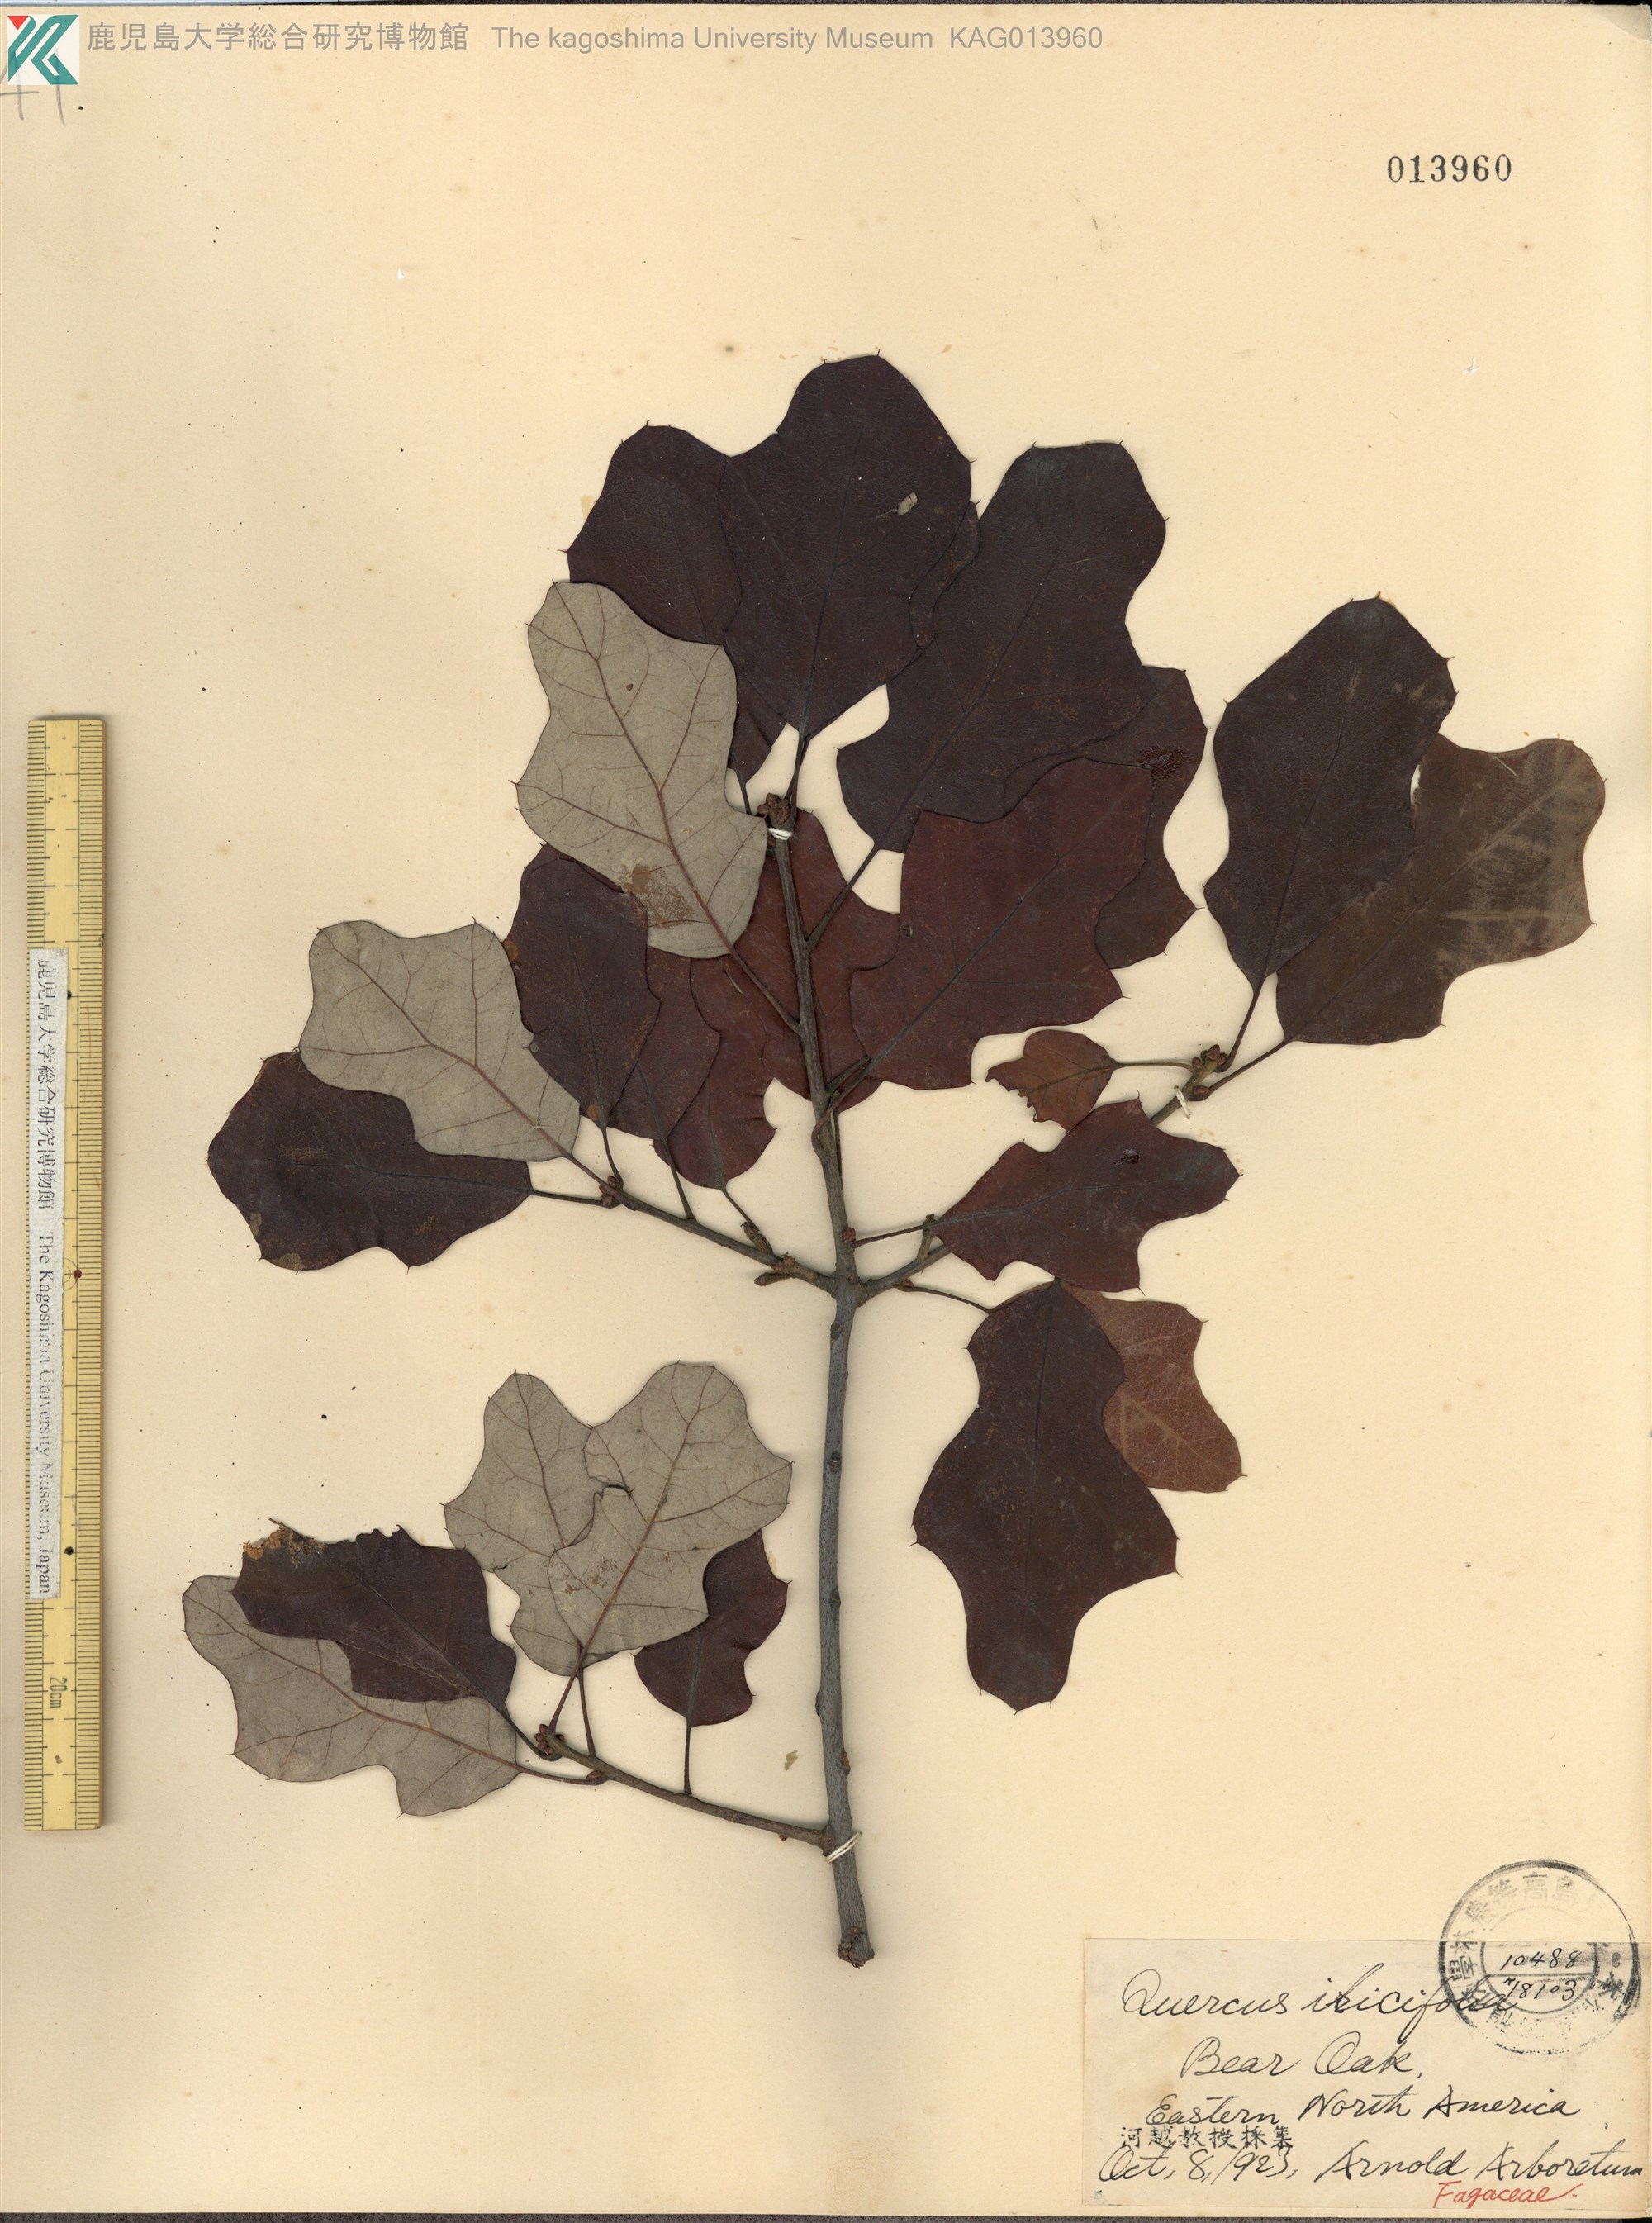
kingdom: Plantae
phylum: Tracheophyta
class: Magnoliopsida
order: Fagales
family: Fagaceae
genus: Quercus
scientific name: Quercus ilicifolia
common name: Bear oak
